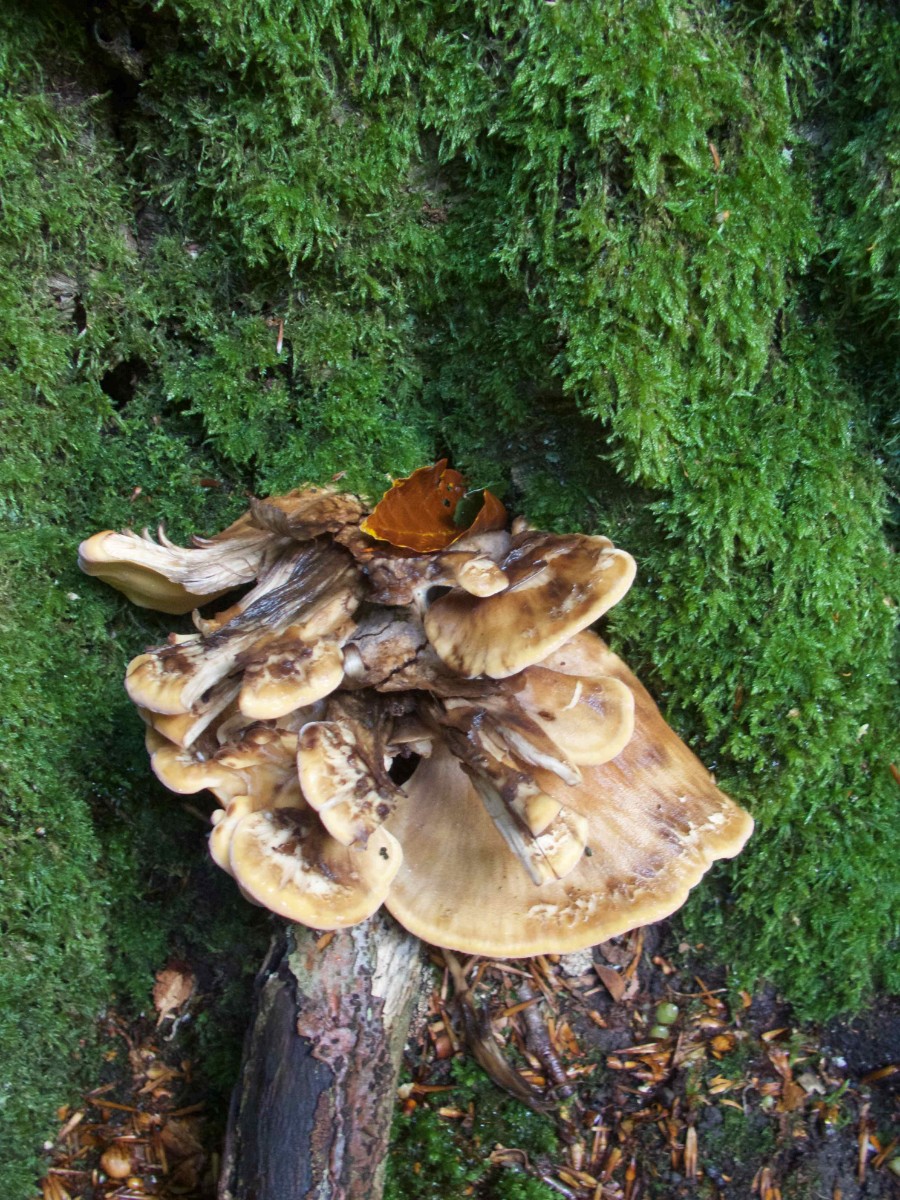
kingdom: Fungi
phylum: Basidiomycota
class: Agaricomycetes
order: Polyporales
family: Meripilaceae
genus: Meripilus
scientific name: Meripilus giganteus
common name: kæmpeporesvamp
